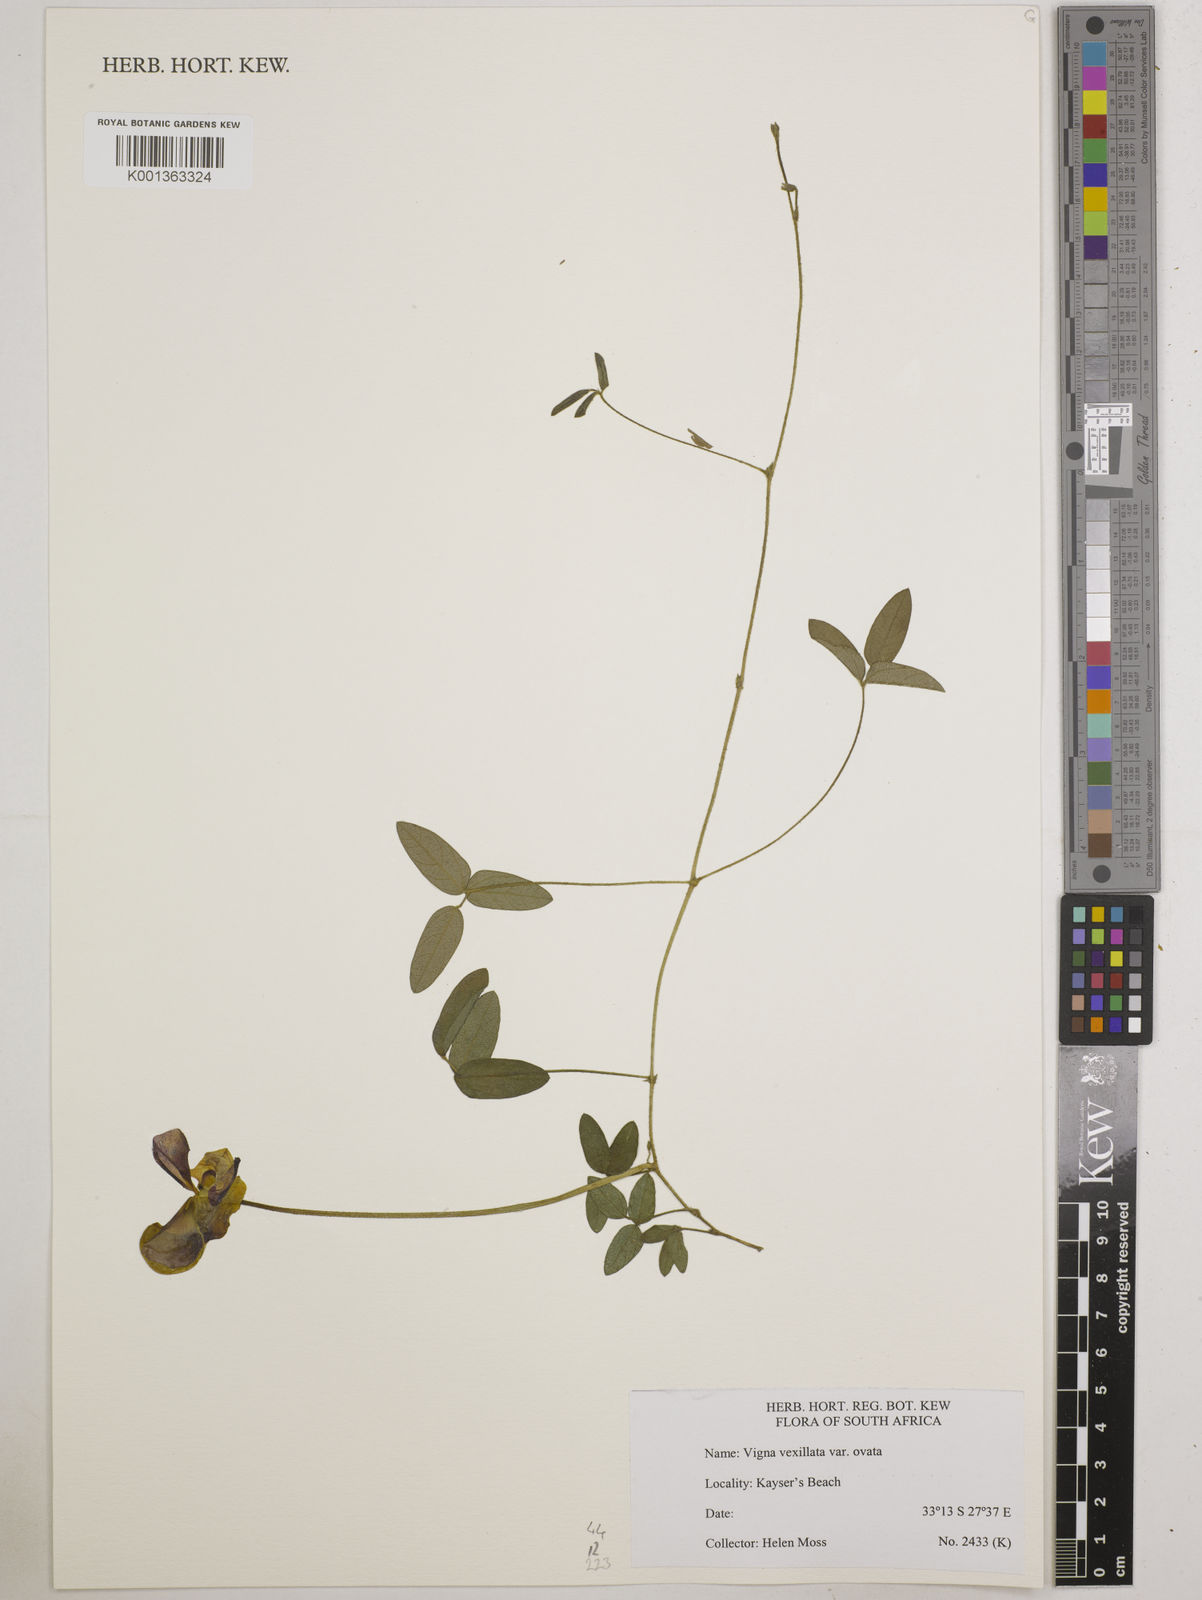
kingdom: Plantae
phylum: Tracheophyta
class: Magnoliopsida
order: Fabales
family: Fabaceae
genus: Vigna
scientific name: Vigna
